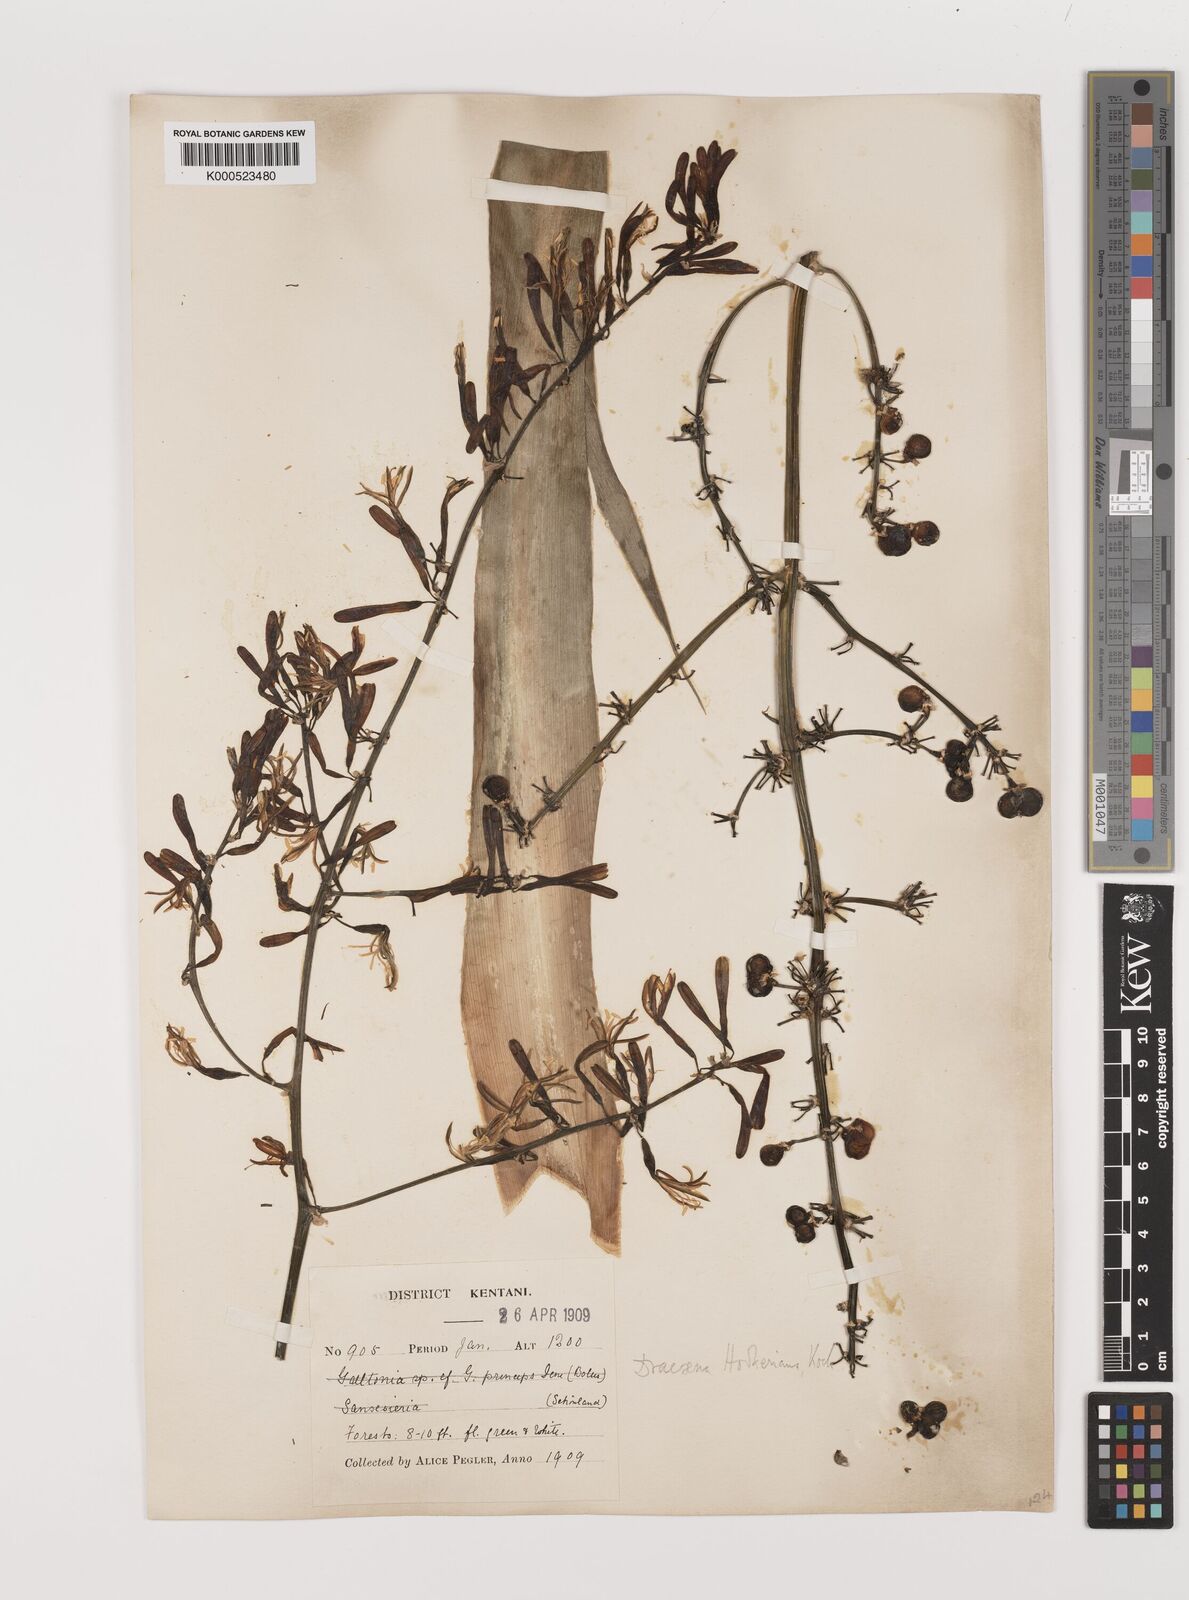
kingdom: Plantae
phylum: Tracheophyta
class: Liliopsida
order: Asparagales
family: Asparagaceae
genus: Dracaena
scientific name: Dracaena aletriformis
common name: Large-leaved dragon tree
